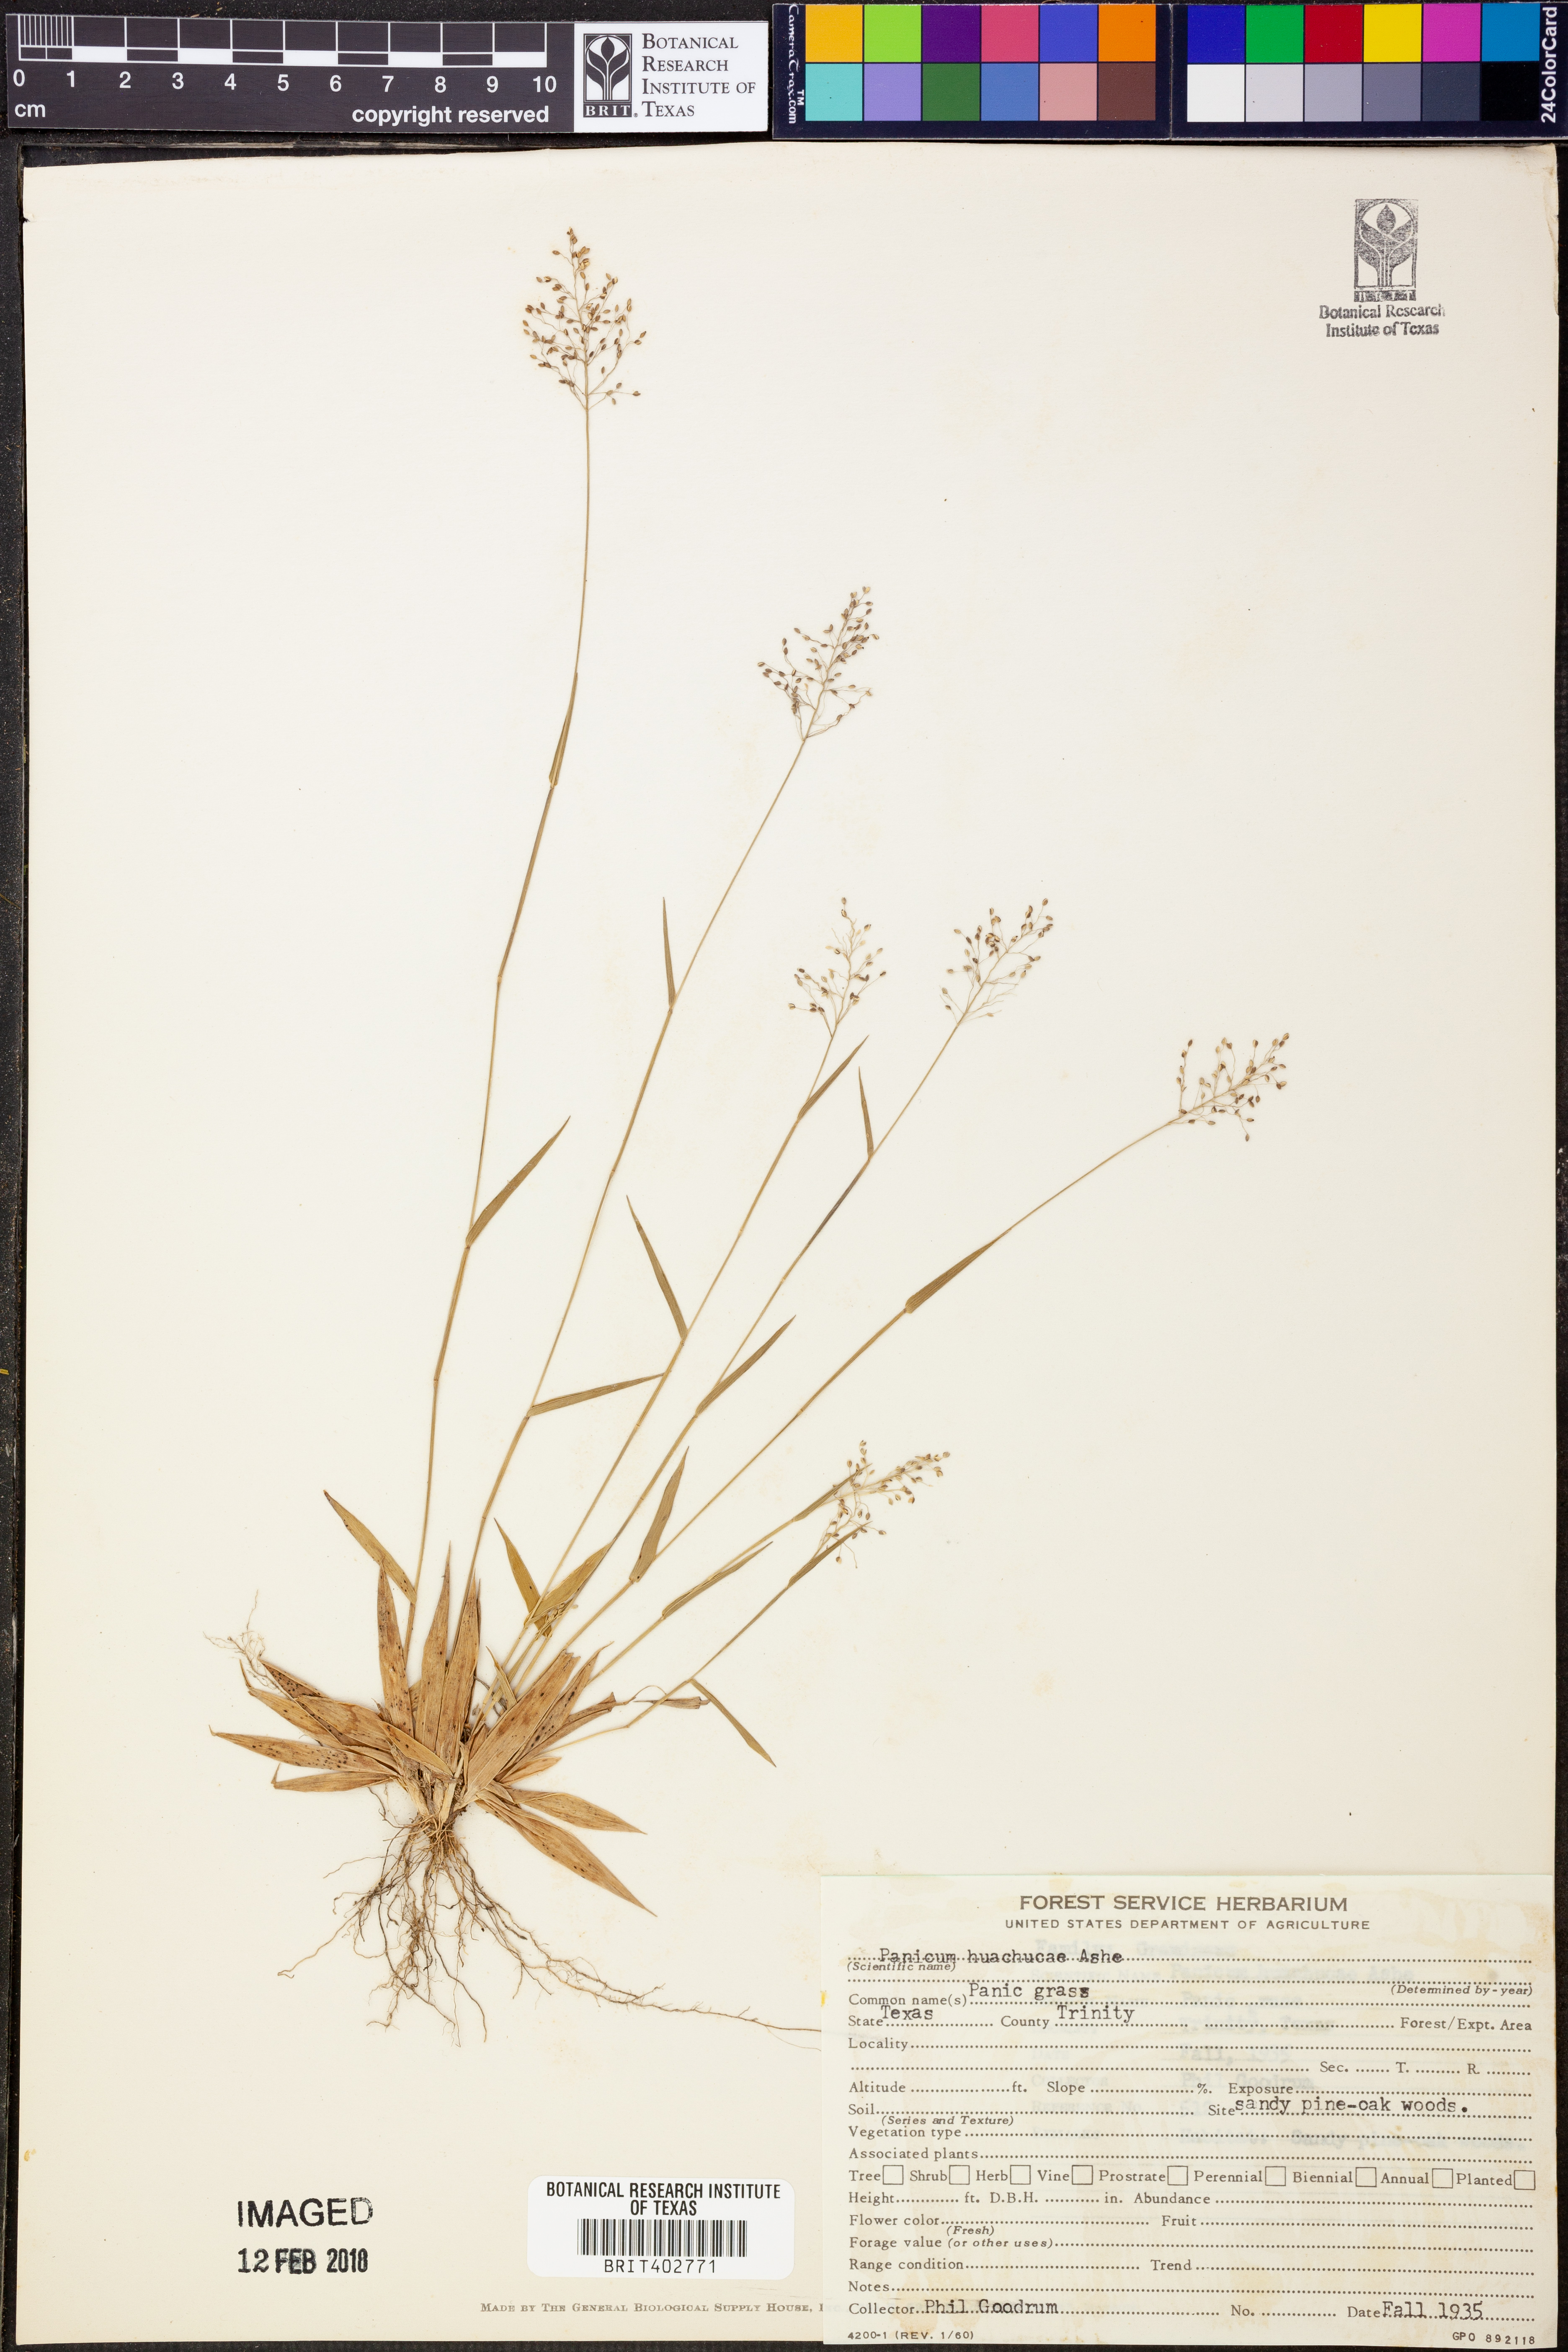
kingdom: Plantae
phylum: Tracheophyta
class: Liliopsida
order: Poales
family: Poaceae
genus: Dichanthelium
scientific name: Dichanthelium lanuginosum
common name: Woolly panicgrass
